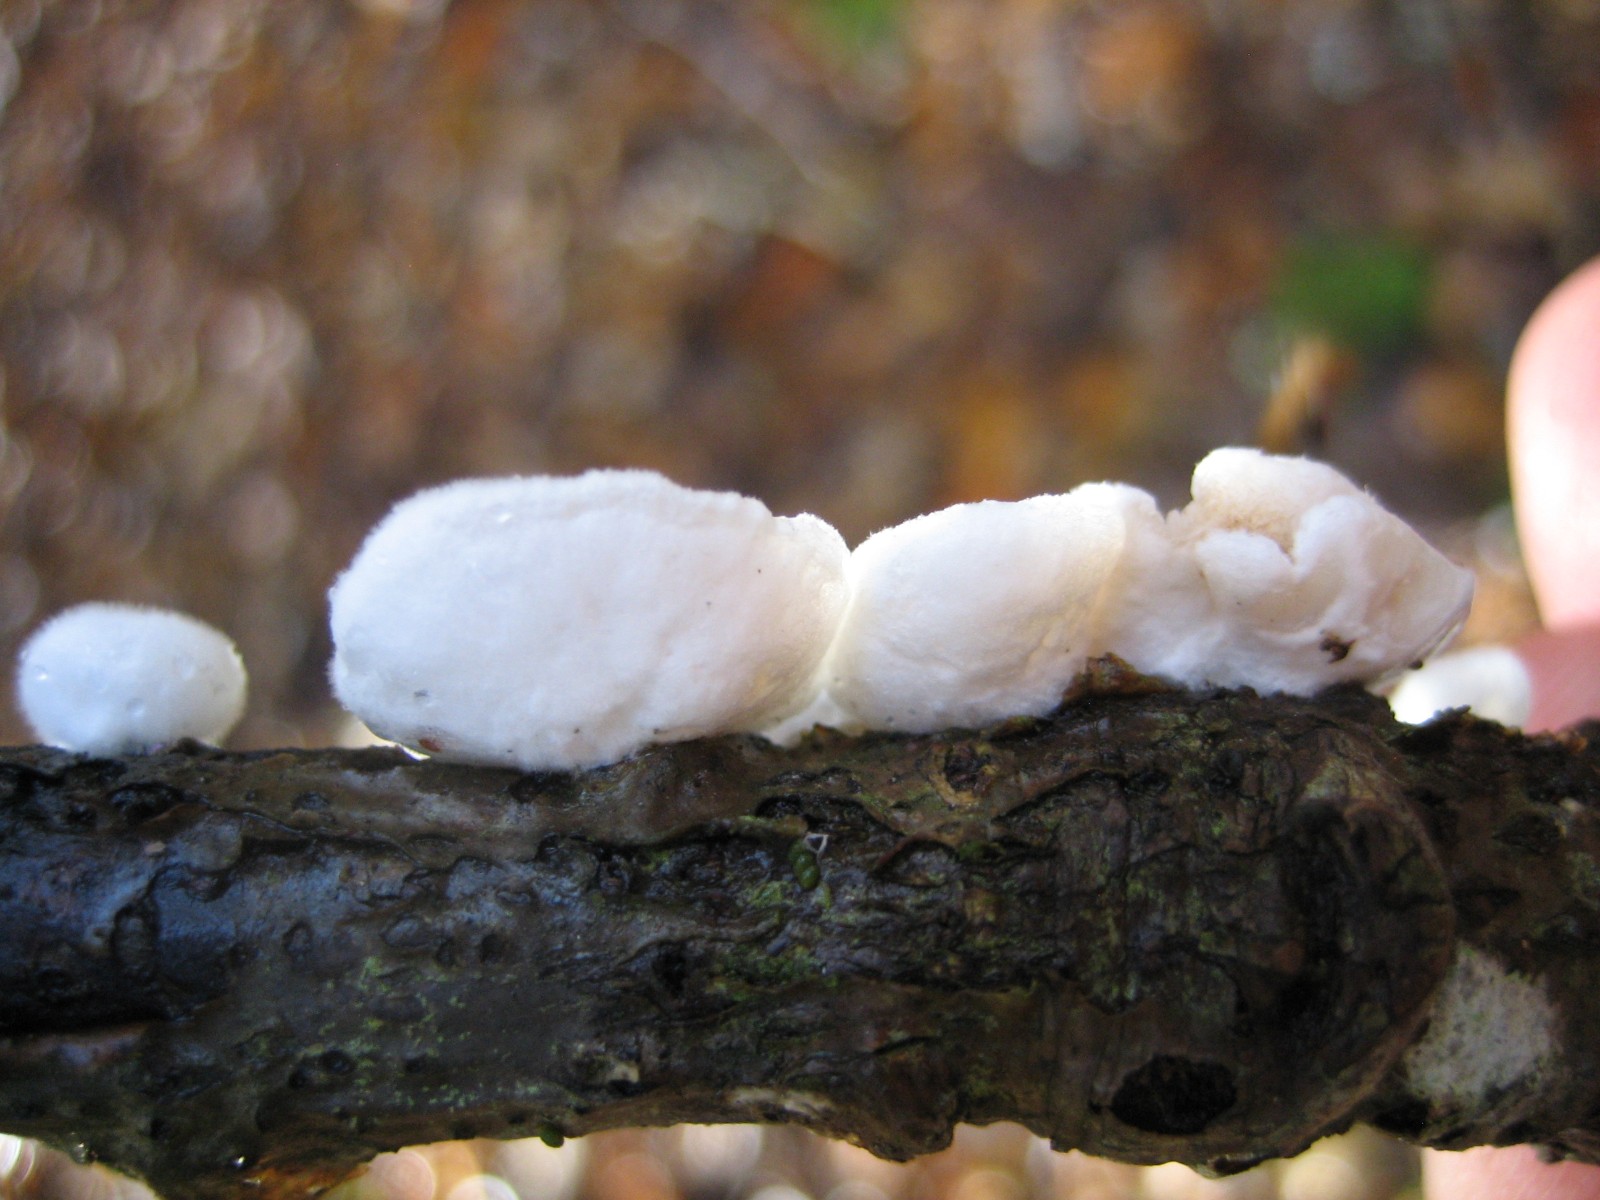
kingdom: Fungi
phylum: Basidiomycota
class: Agaricomycetes
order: Agaricales
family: Crepidotaceae
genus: Crepidotus
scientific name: Crepidotus
